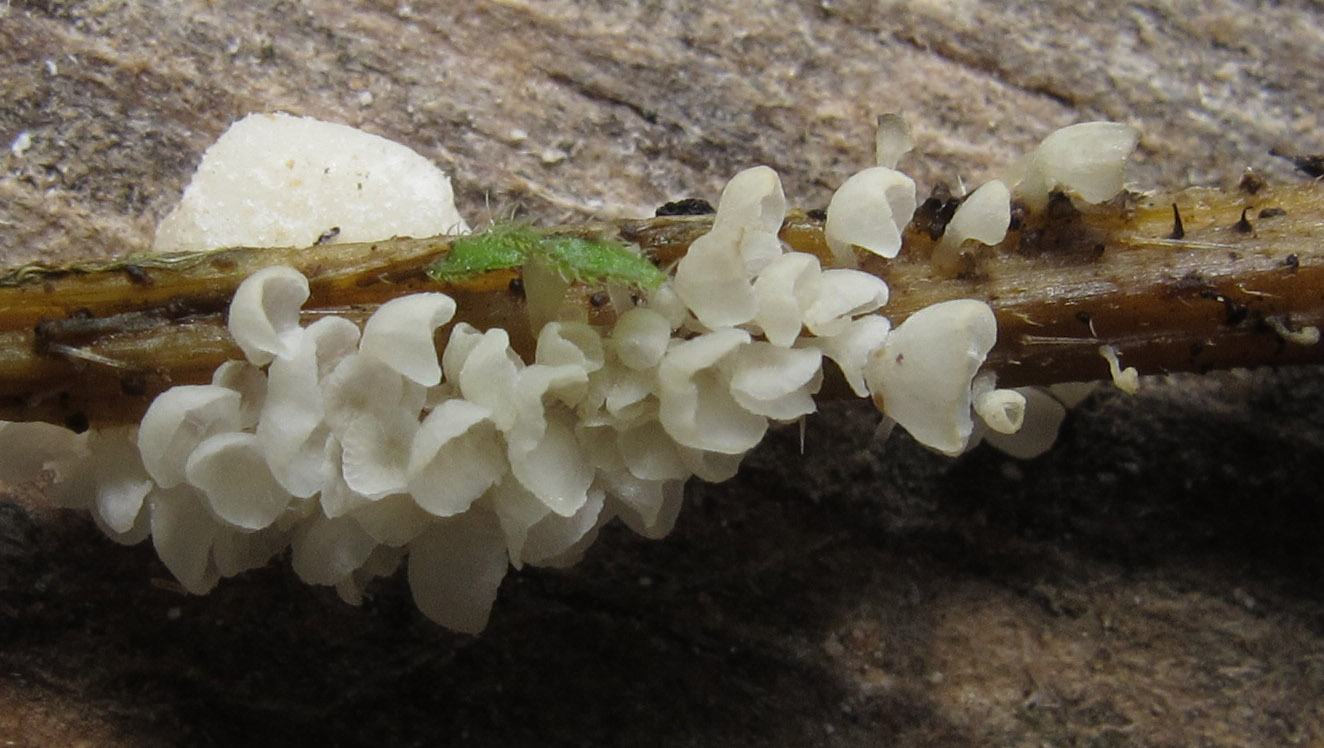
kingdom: Fungi
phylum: Basidiomycota
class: Agaricomycetes
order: Agaricales
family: Marasmiaceae
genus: Calyptella
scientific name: Calyptella capula
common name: hvidlig nældehue
